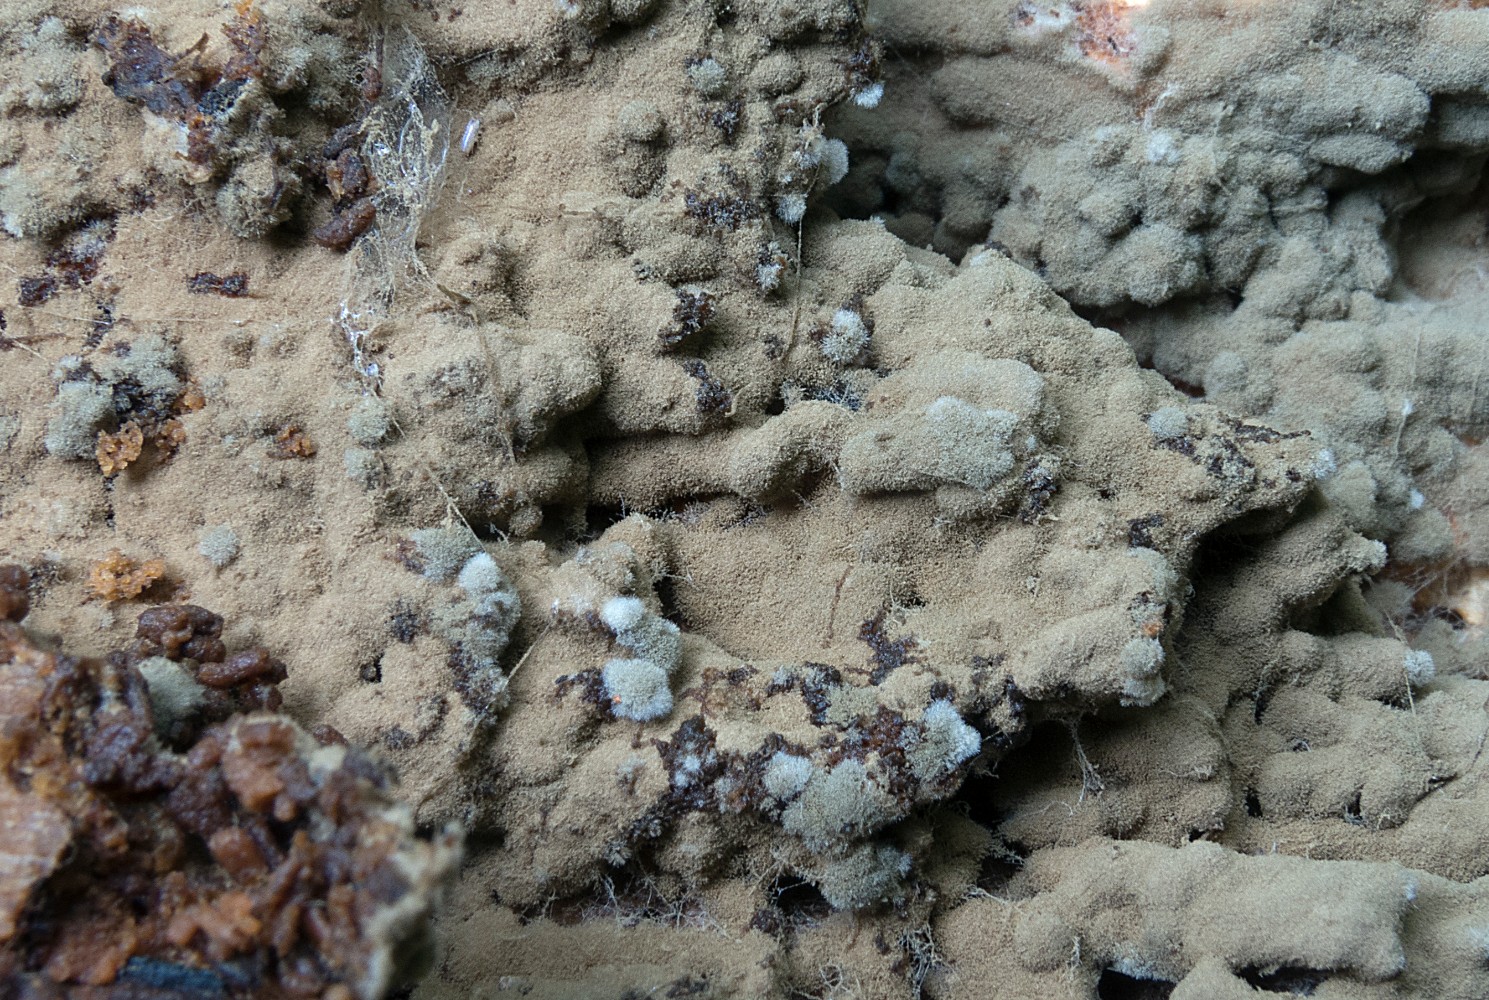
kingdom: Fungi
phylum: Basidiomycota
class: Agaricomycetes
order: Cantharellales
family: Botryobasidiaceae
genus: Botryobasidium
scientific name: Botryobasidium conspersum
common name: olivengrå spindhinde
